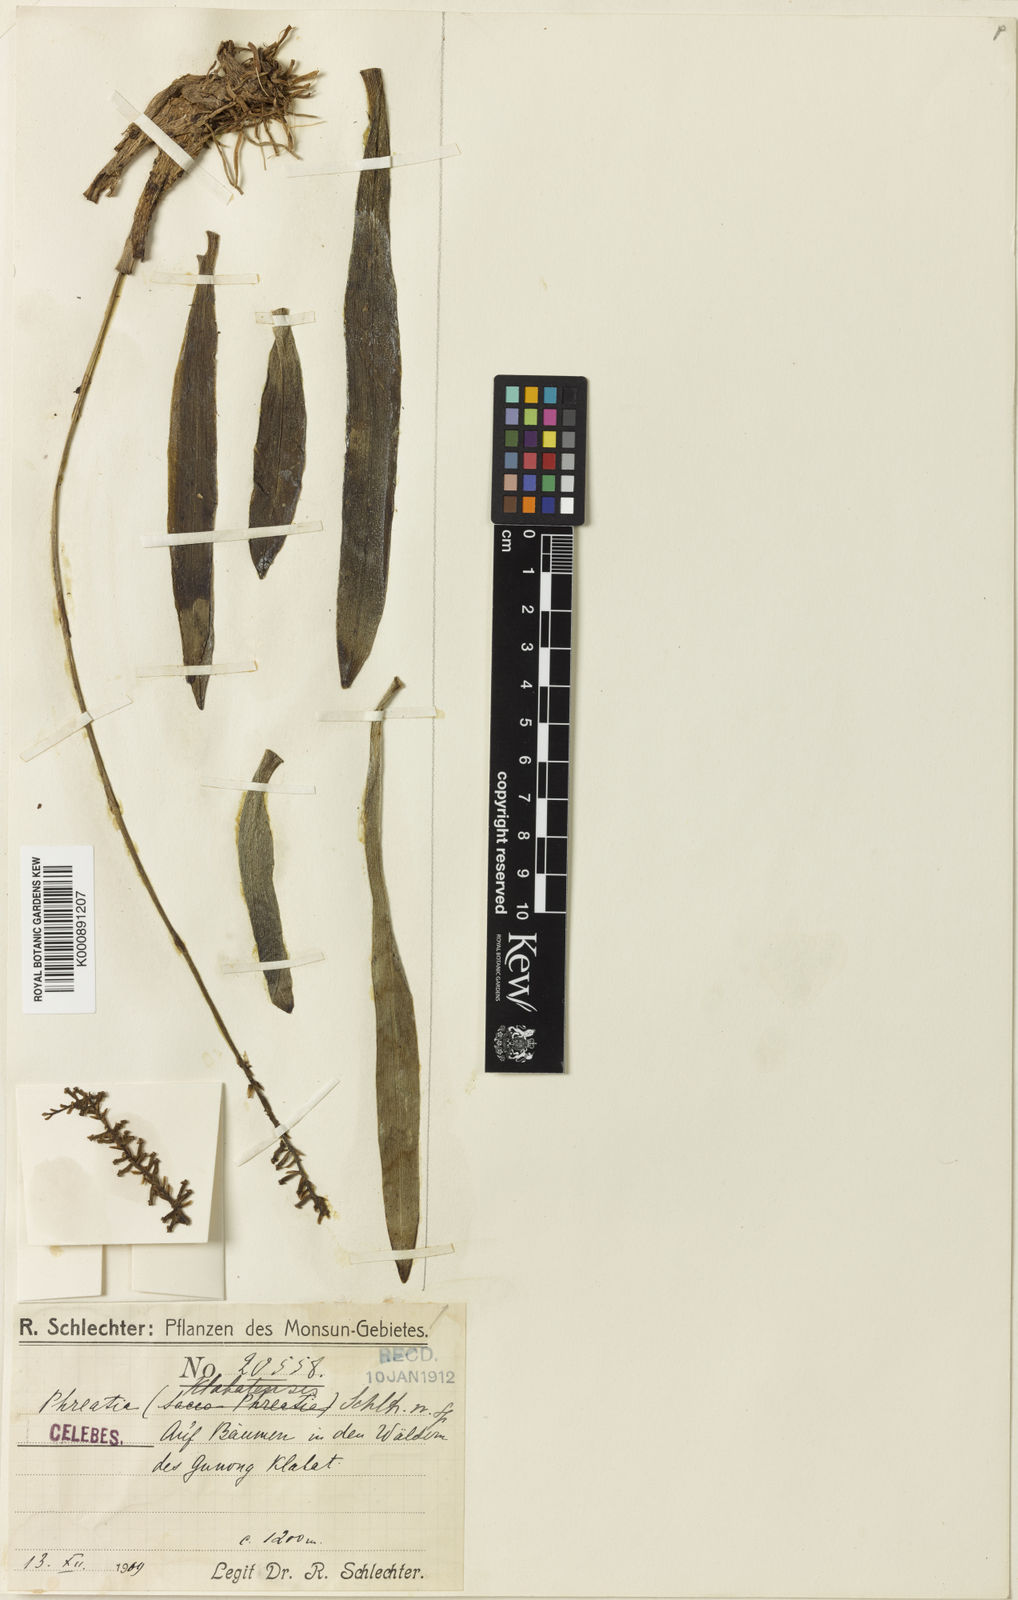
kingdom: Plantae
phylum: Tracheophyta
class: Liliopsida
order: Asparagales
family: Orchidaceae
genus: Phreatia
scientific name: Phreatia klabatensis
